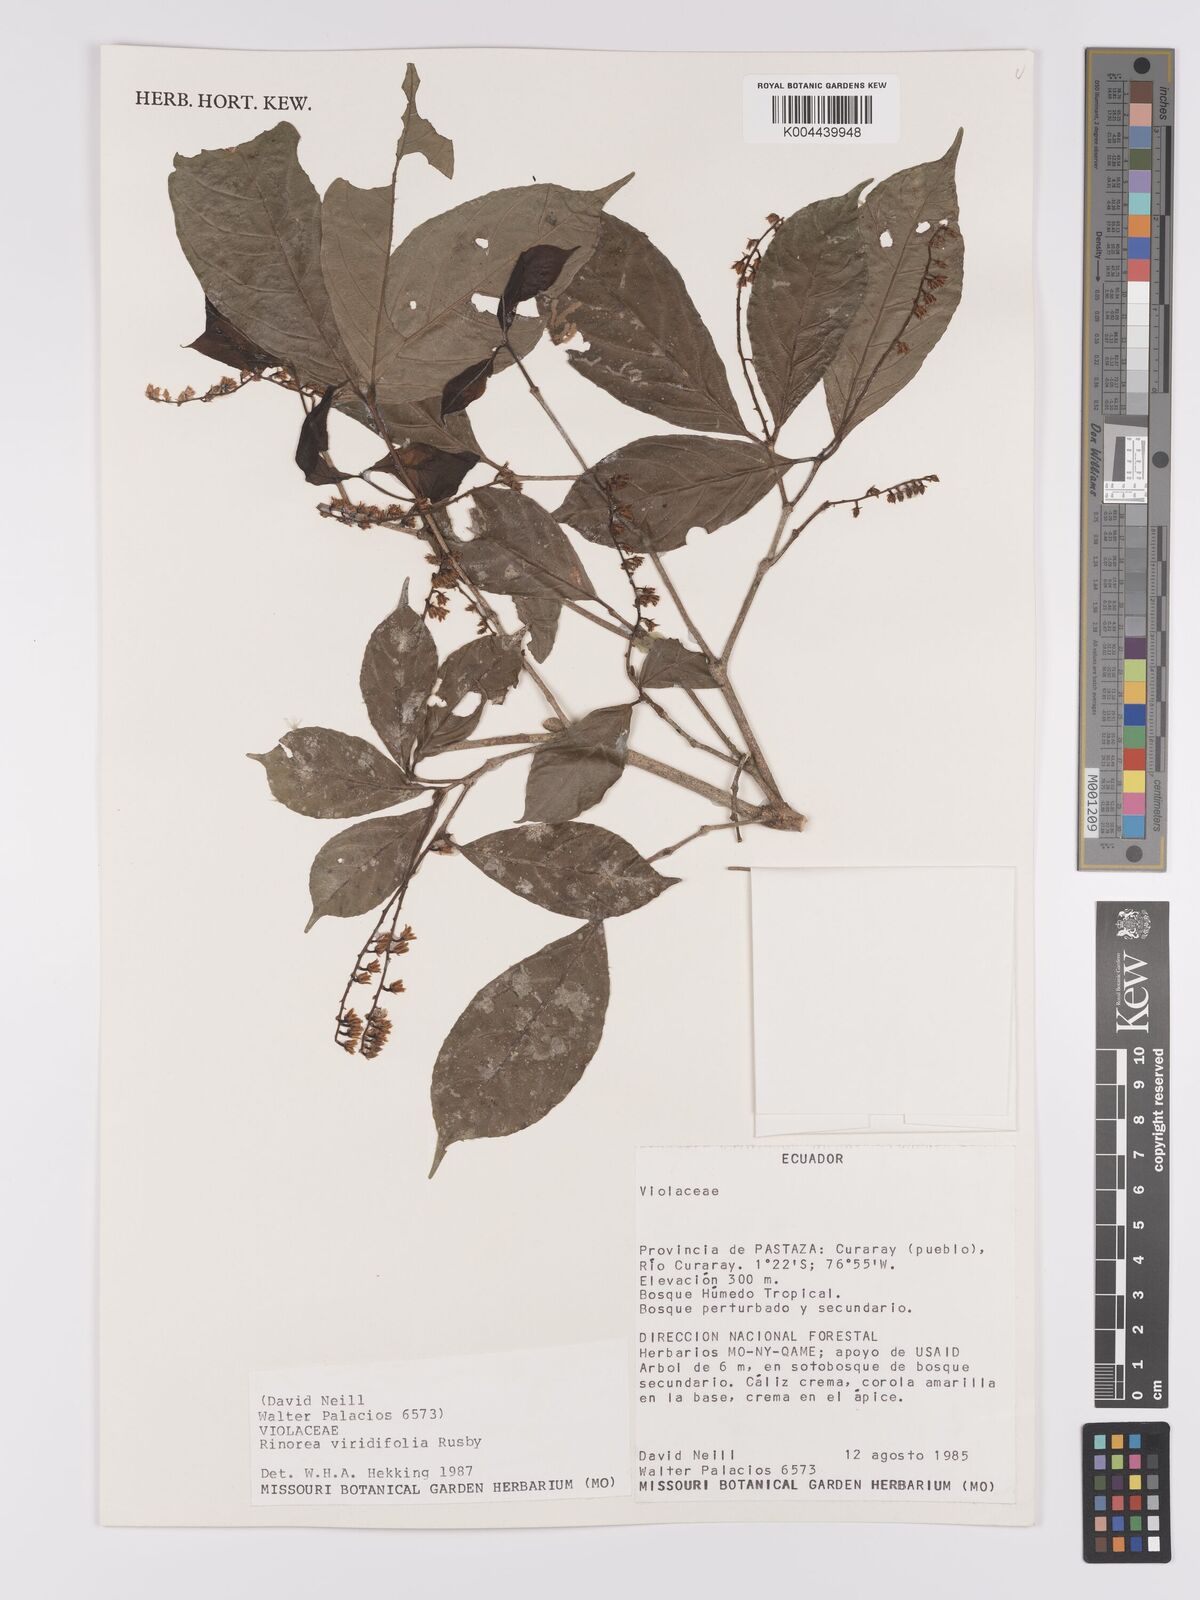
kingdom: Plantae
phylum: Tracheophyta
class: Magnoliopsida
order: Malpighiales
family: Violaceae
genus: Rinorea
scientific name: Rinorea viridifolia
